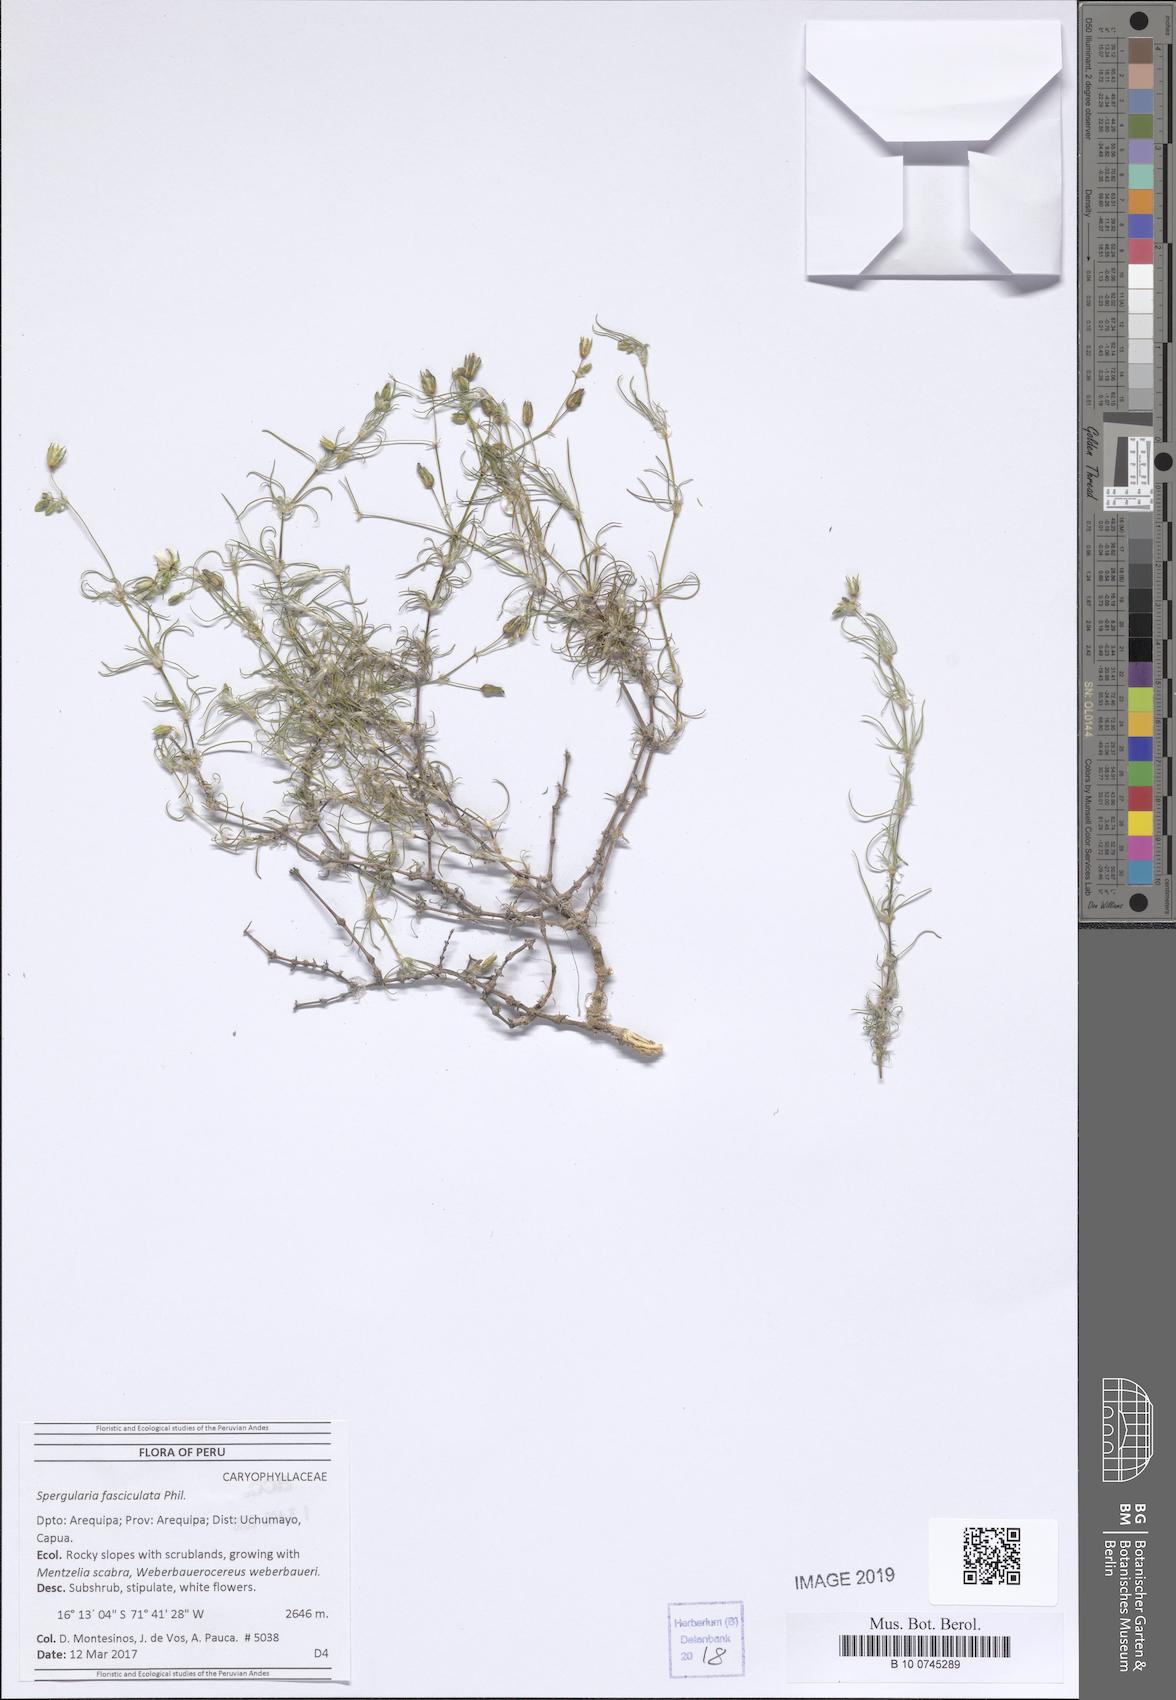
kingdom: Plantae
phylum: Tracheophyta
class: Magnoliopsida
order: Caryophyllales
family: Caryophyllaceae
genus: Spergularia
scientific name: Spergularia fasciculata
